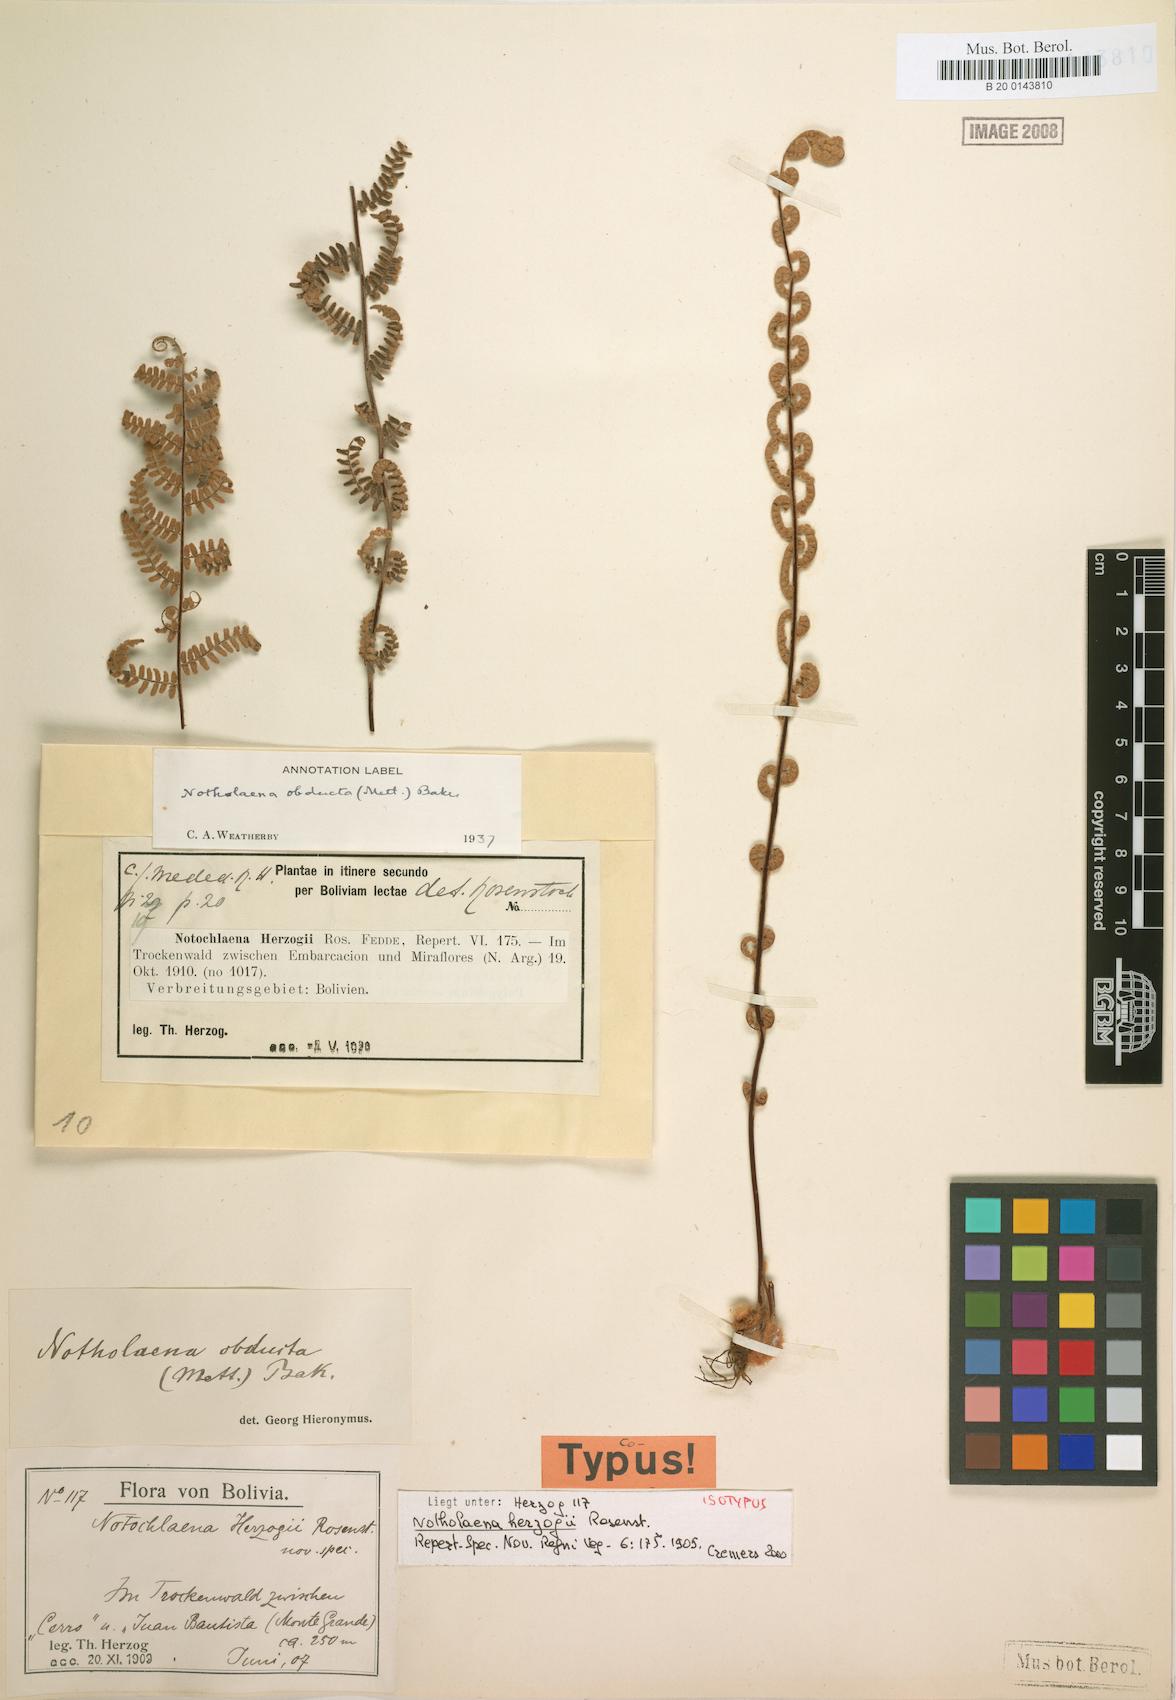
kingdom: Plantae
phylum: Tracheophyta
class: Polypodiopsida
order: Polypodiales
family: Pteridaceae
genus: Cheilanthes
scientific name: Cheilanthes obducta
